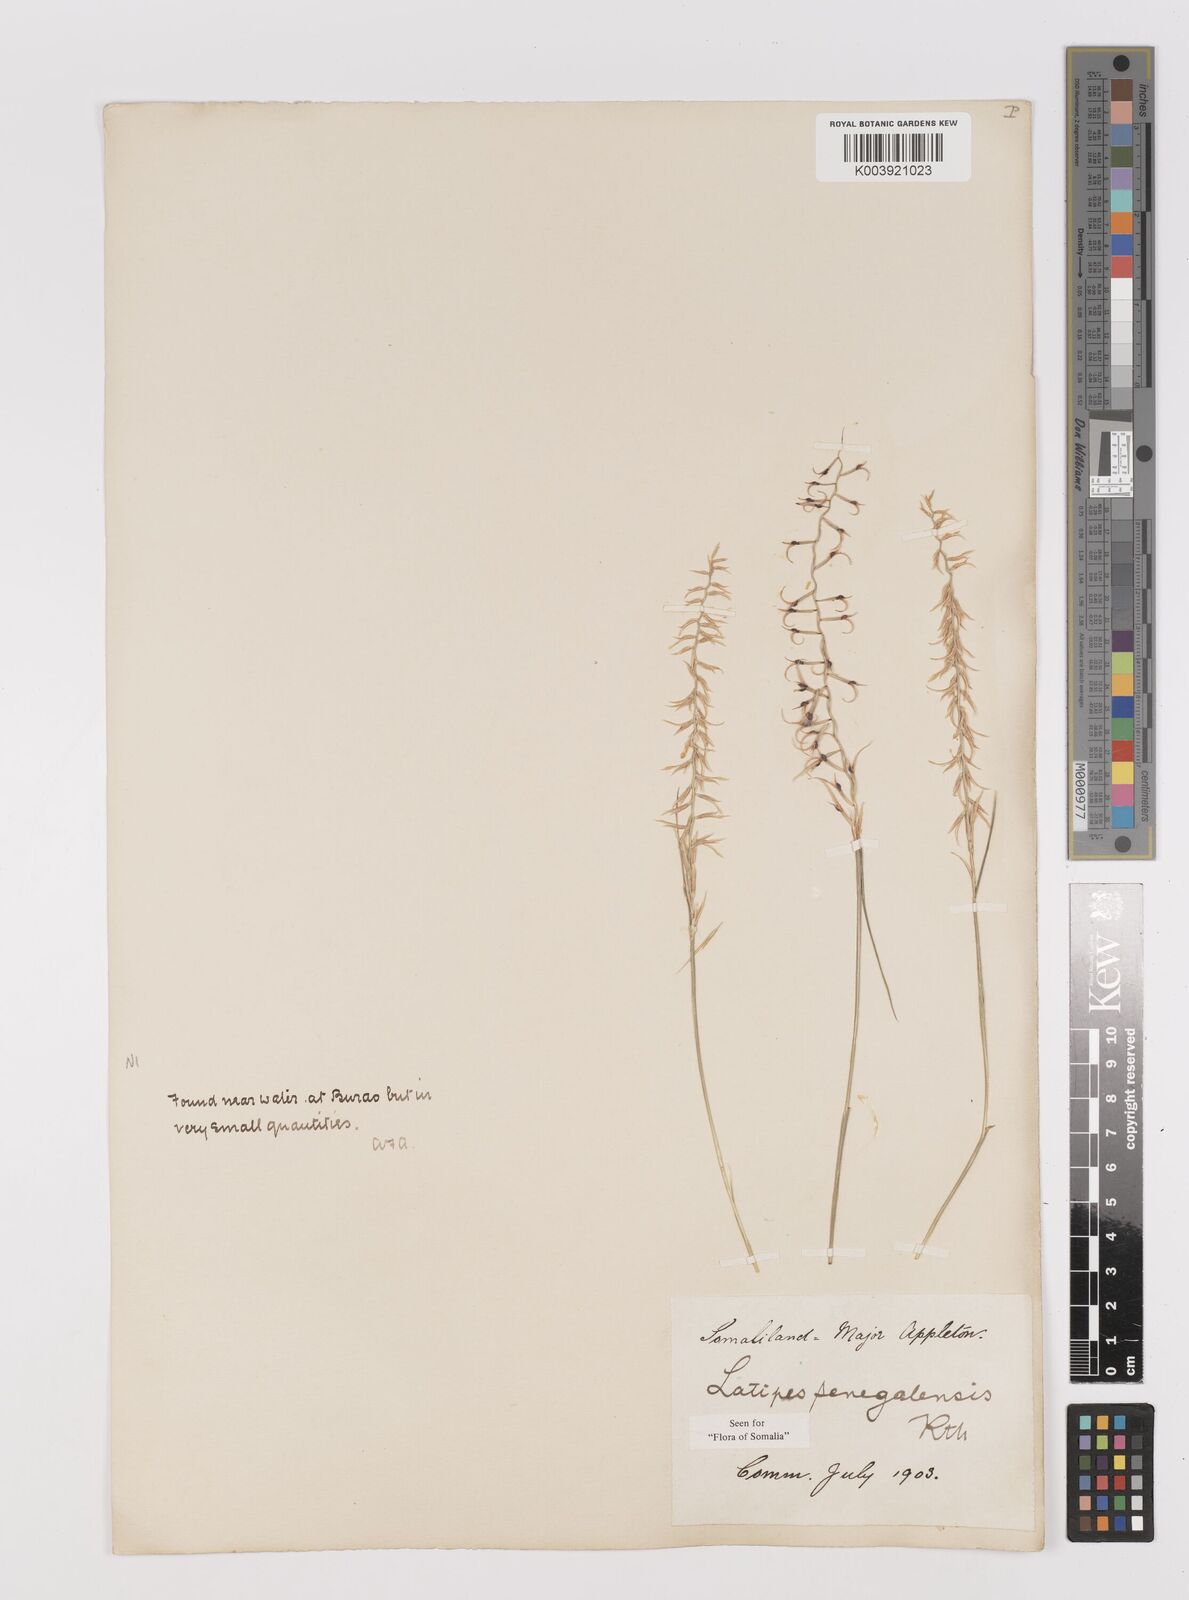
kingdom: Plantae
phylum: Tracheophyta
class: Liliopsida
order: Poales
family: Poaceae
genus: Leptothrium
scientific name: Leptothrium senegalense
